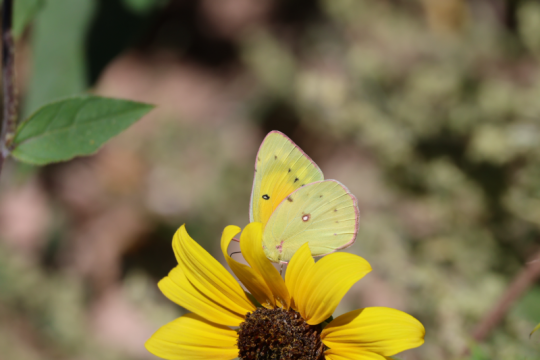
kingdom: Animalia
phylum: Arthropoda
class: Insecta
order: Lepidoptera
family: Pieridae
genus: Colias
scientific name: Colias eurytheme
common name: Orange Sulphur
